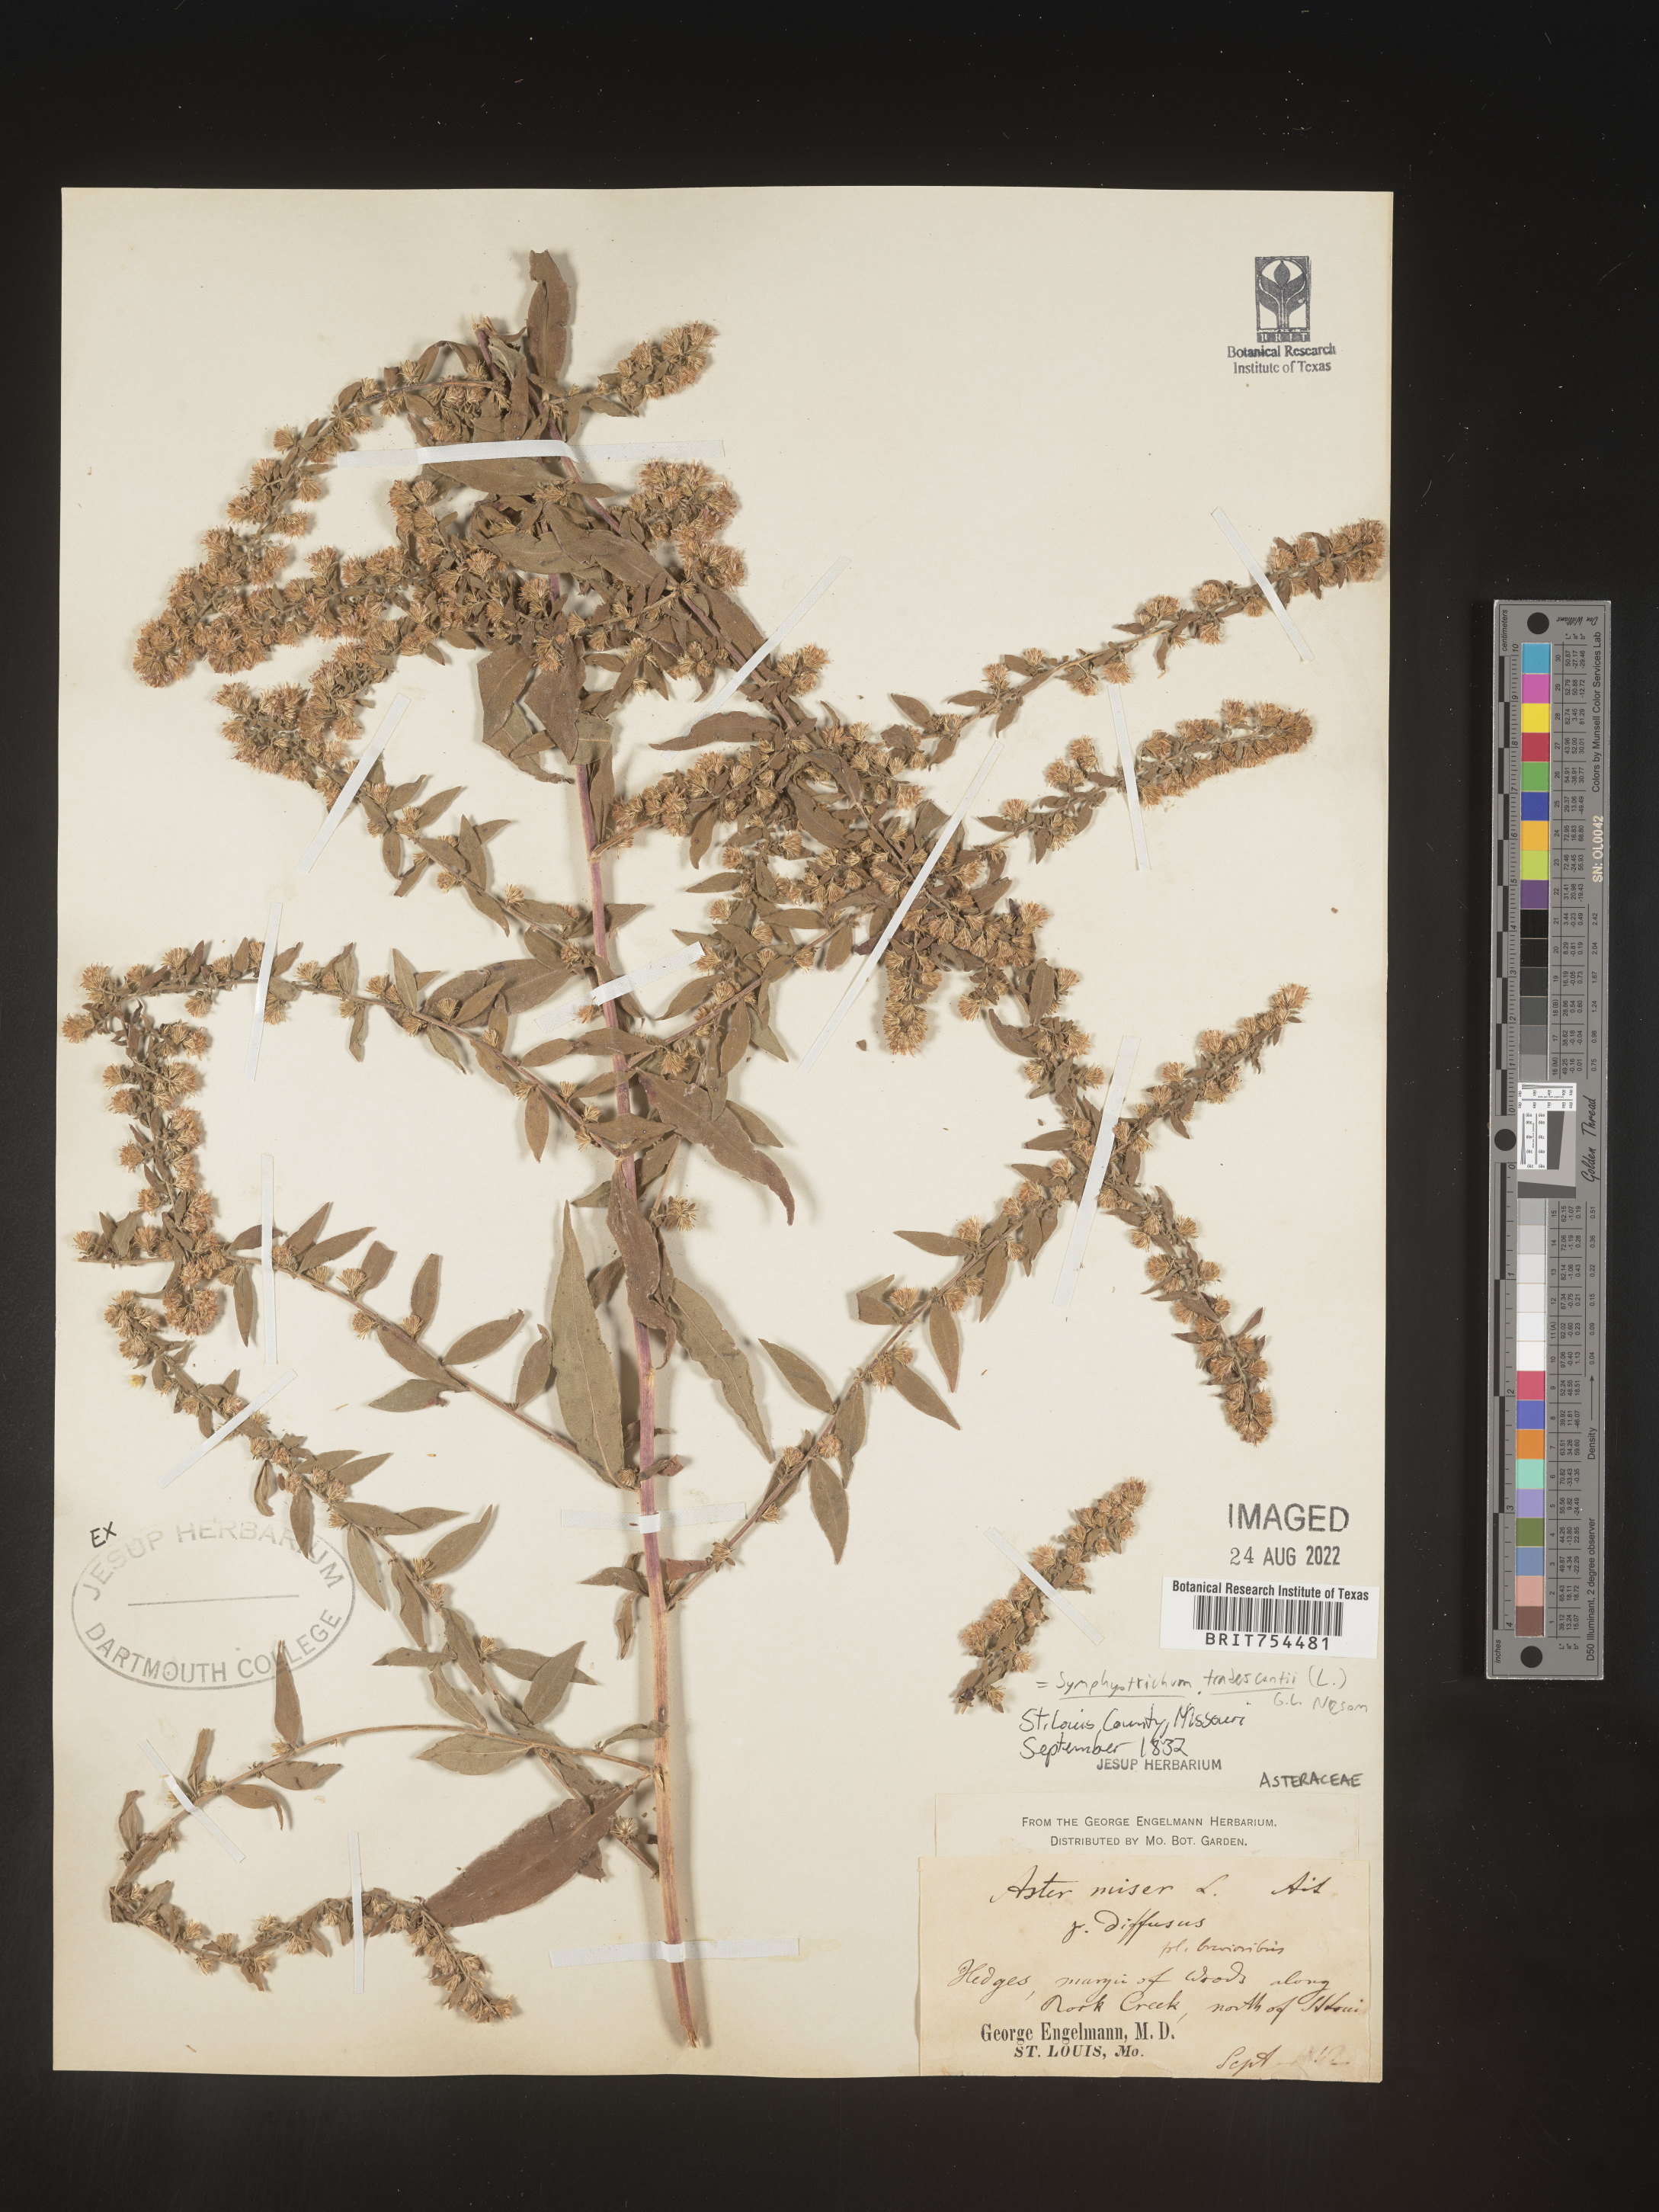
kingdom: Plantae
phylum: Tracheophyta
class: Magnoliopsida
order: Asterales
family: Asteraceae
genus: Symphyotrichum
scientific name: Symphyotrichum tradescantii
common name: Shore aster
